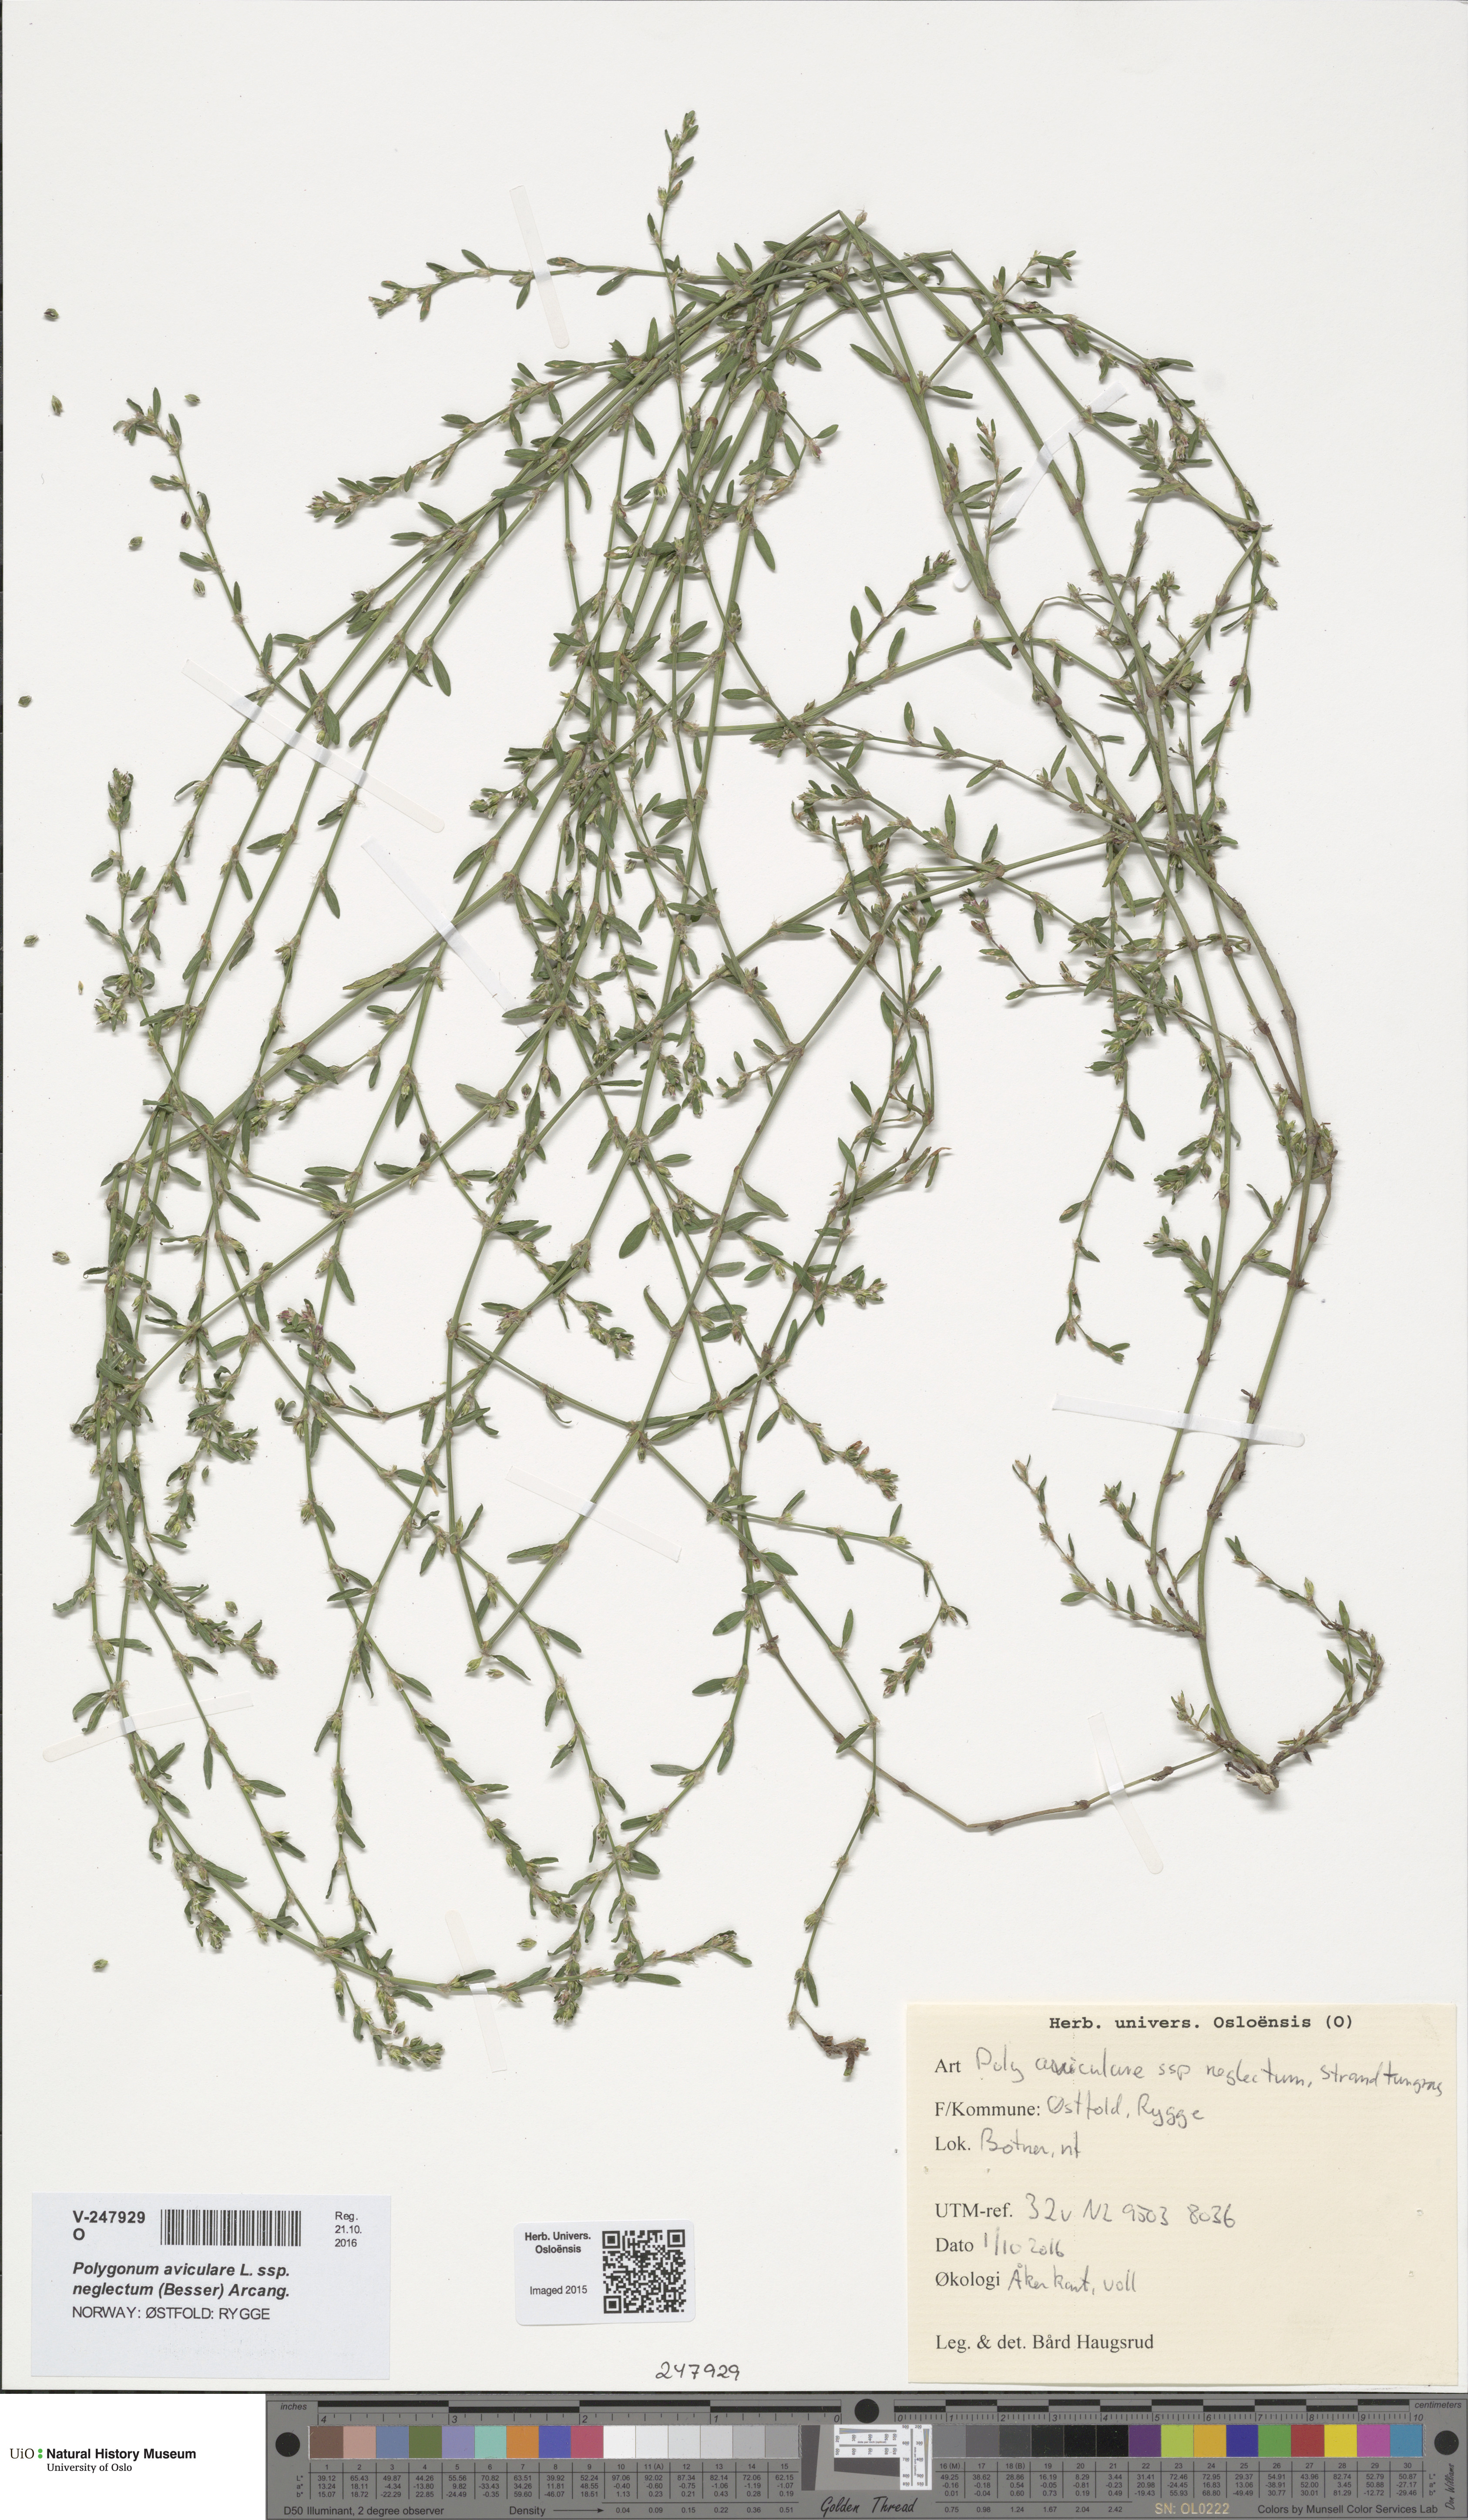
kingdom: Plantae
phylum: Tracheophyta
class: Magnoliopsida
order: Caryophyllales
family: Polygonaceae
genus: Polygonum
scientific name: Polygonum aviculare
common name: Prostrate knotweed
